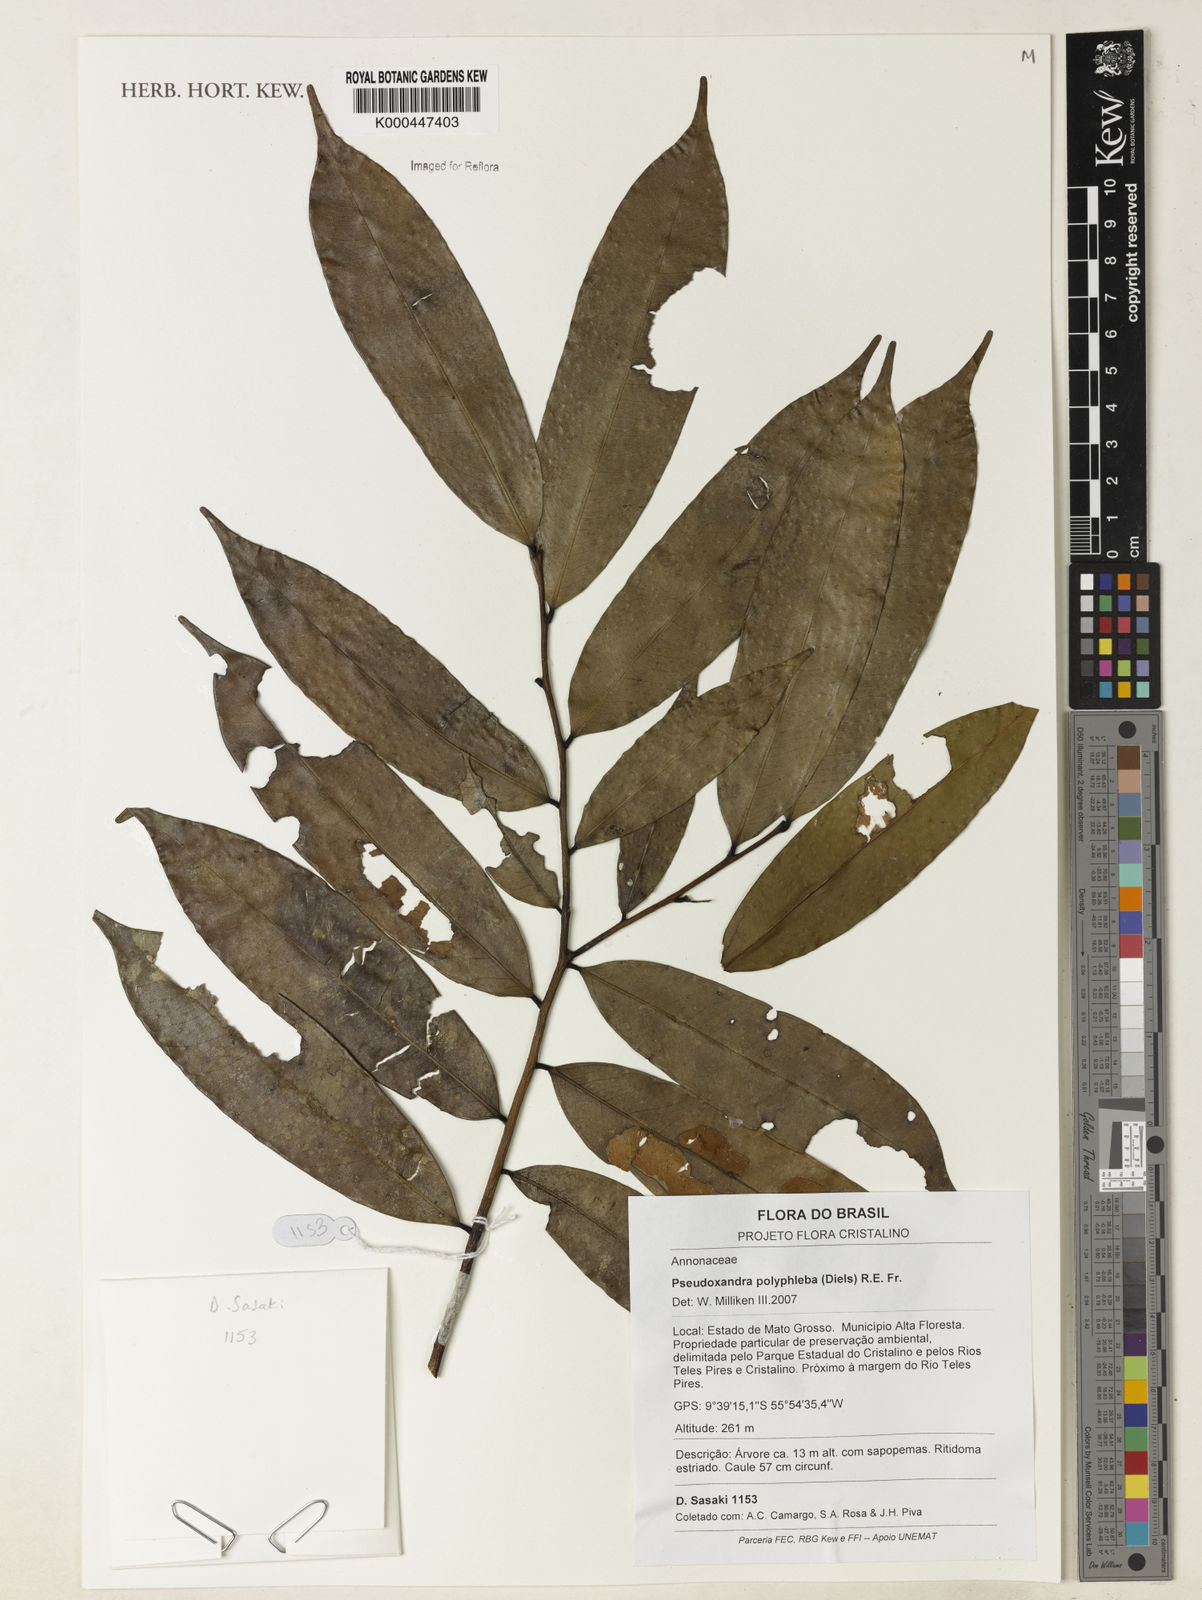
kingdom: Plantae
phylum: Tracheophyta
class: Magnoliopsida
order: Magnoliales
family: Annonaceae
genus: Pseudoxandra
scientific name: Pseudoxandra polyphleba
